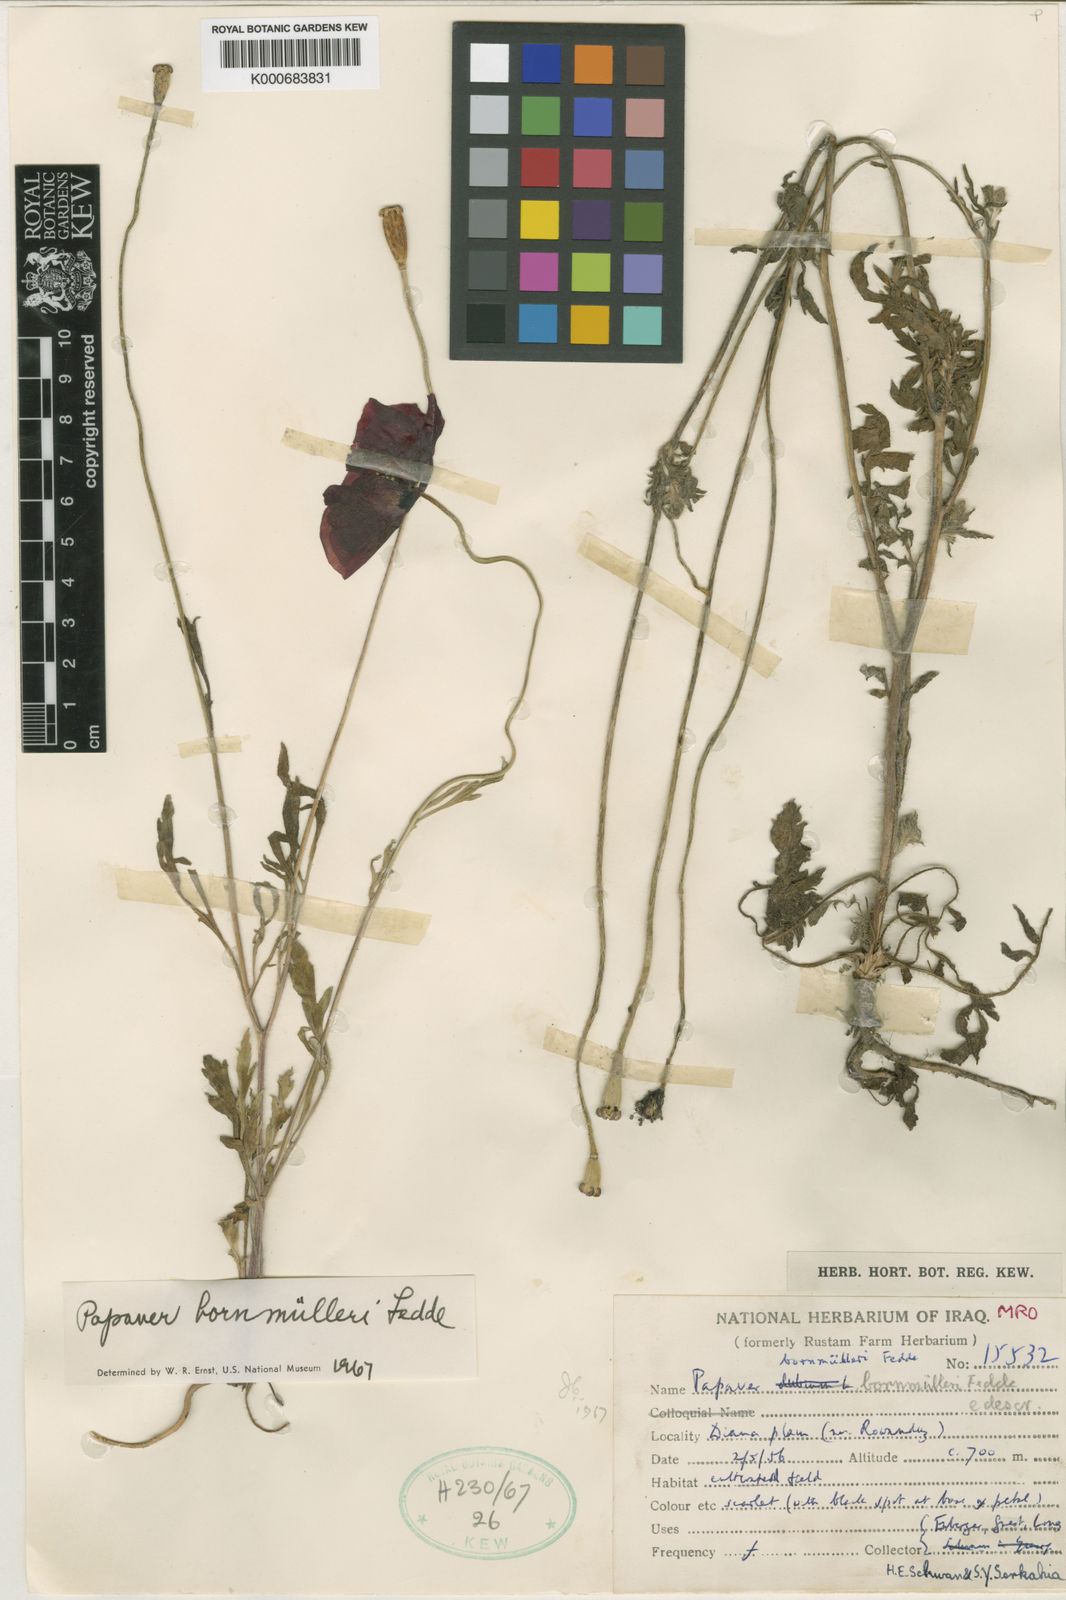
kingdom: Plantae
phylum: Tracheophyta
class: Magnoliopsida
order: Ranunculales
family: Papaveraceae
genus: Papaver
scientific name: Papaver macrostomum
